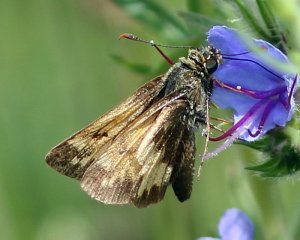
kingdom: Animalia
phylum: Arthropoda
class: Insecta
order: Lepidoptera
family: Hesperiidae
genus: Lon
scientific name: Lon hobomok
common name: Hobomok Skipper
